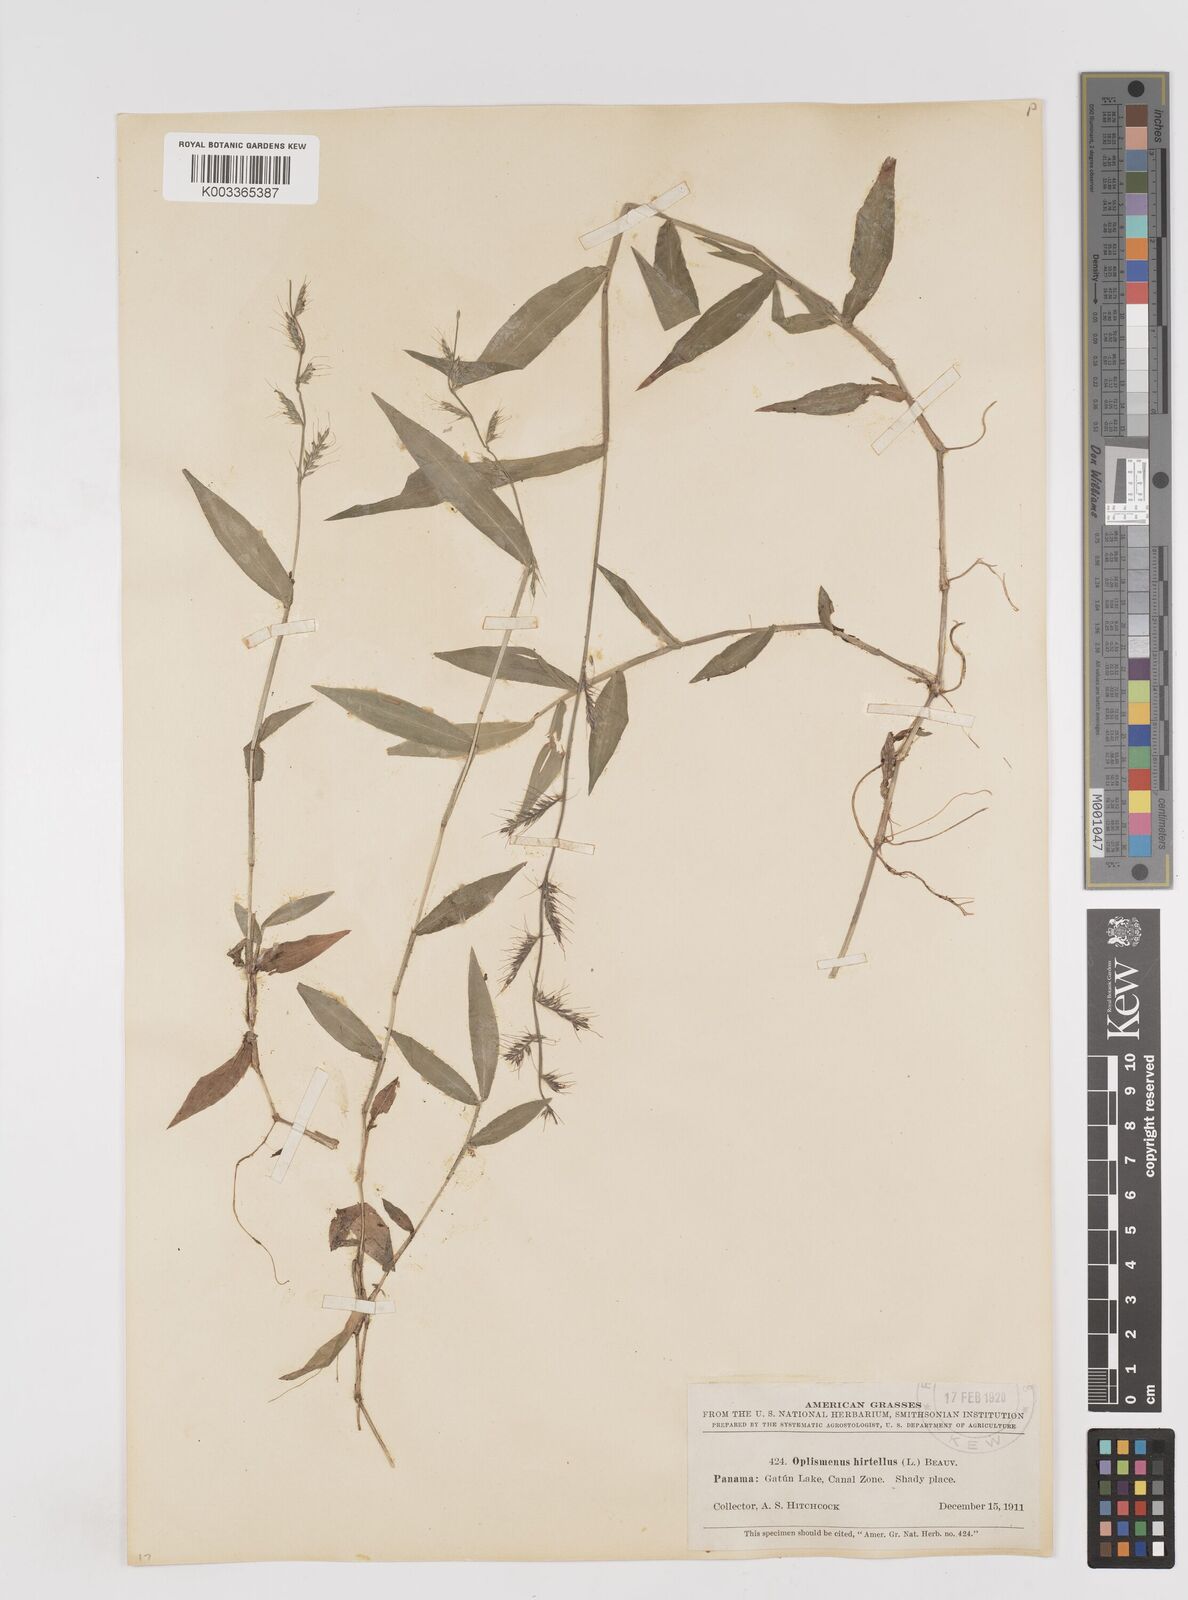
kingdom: Plantae
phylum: Tracheophyta
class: Liliopsida
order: Poales
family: Poaceae
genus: Oplismenus
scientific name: Oplismenus hirtellus
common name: Basketgrass
